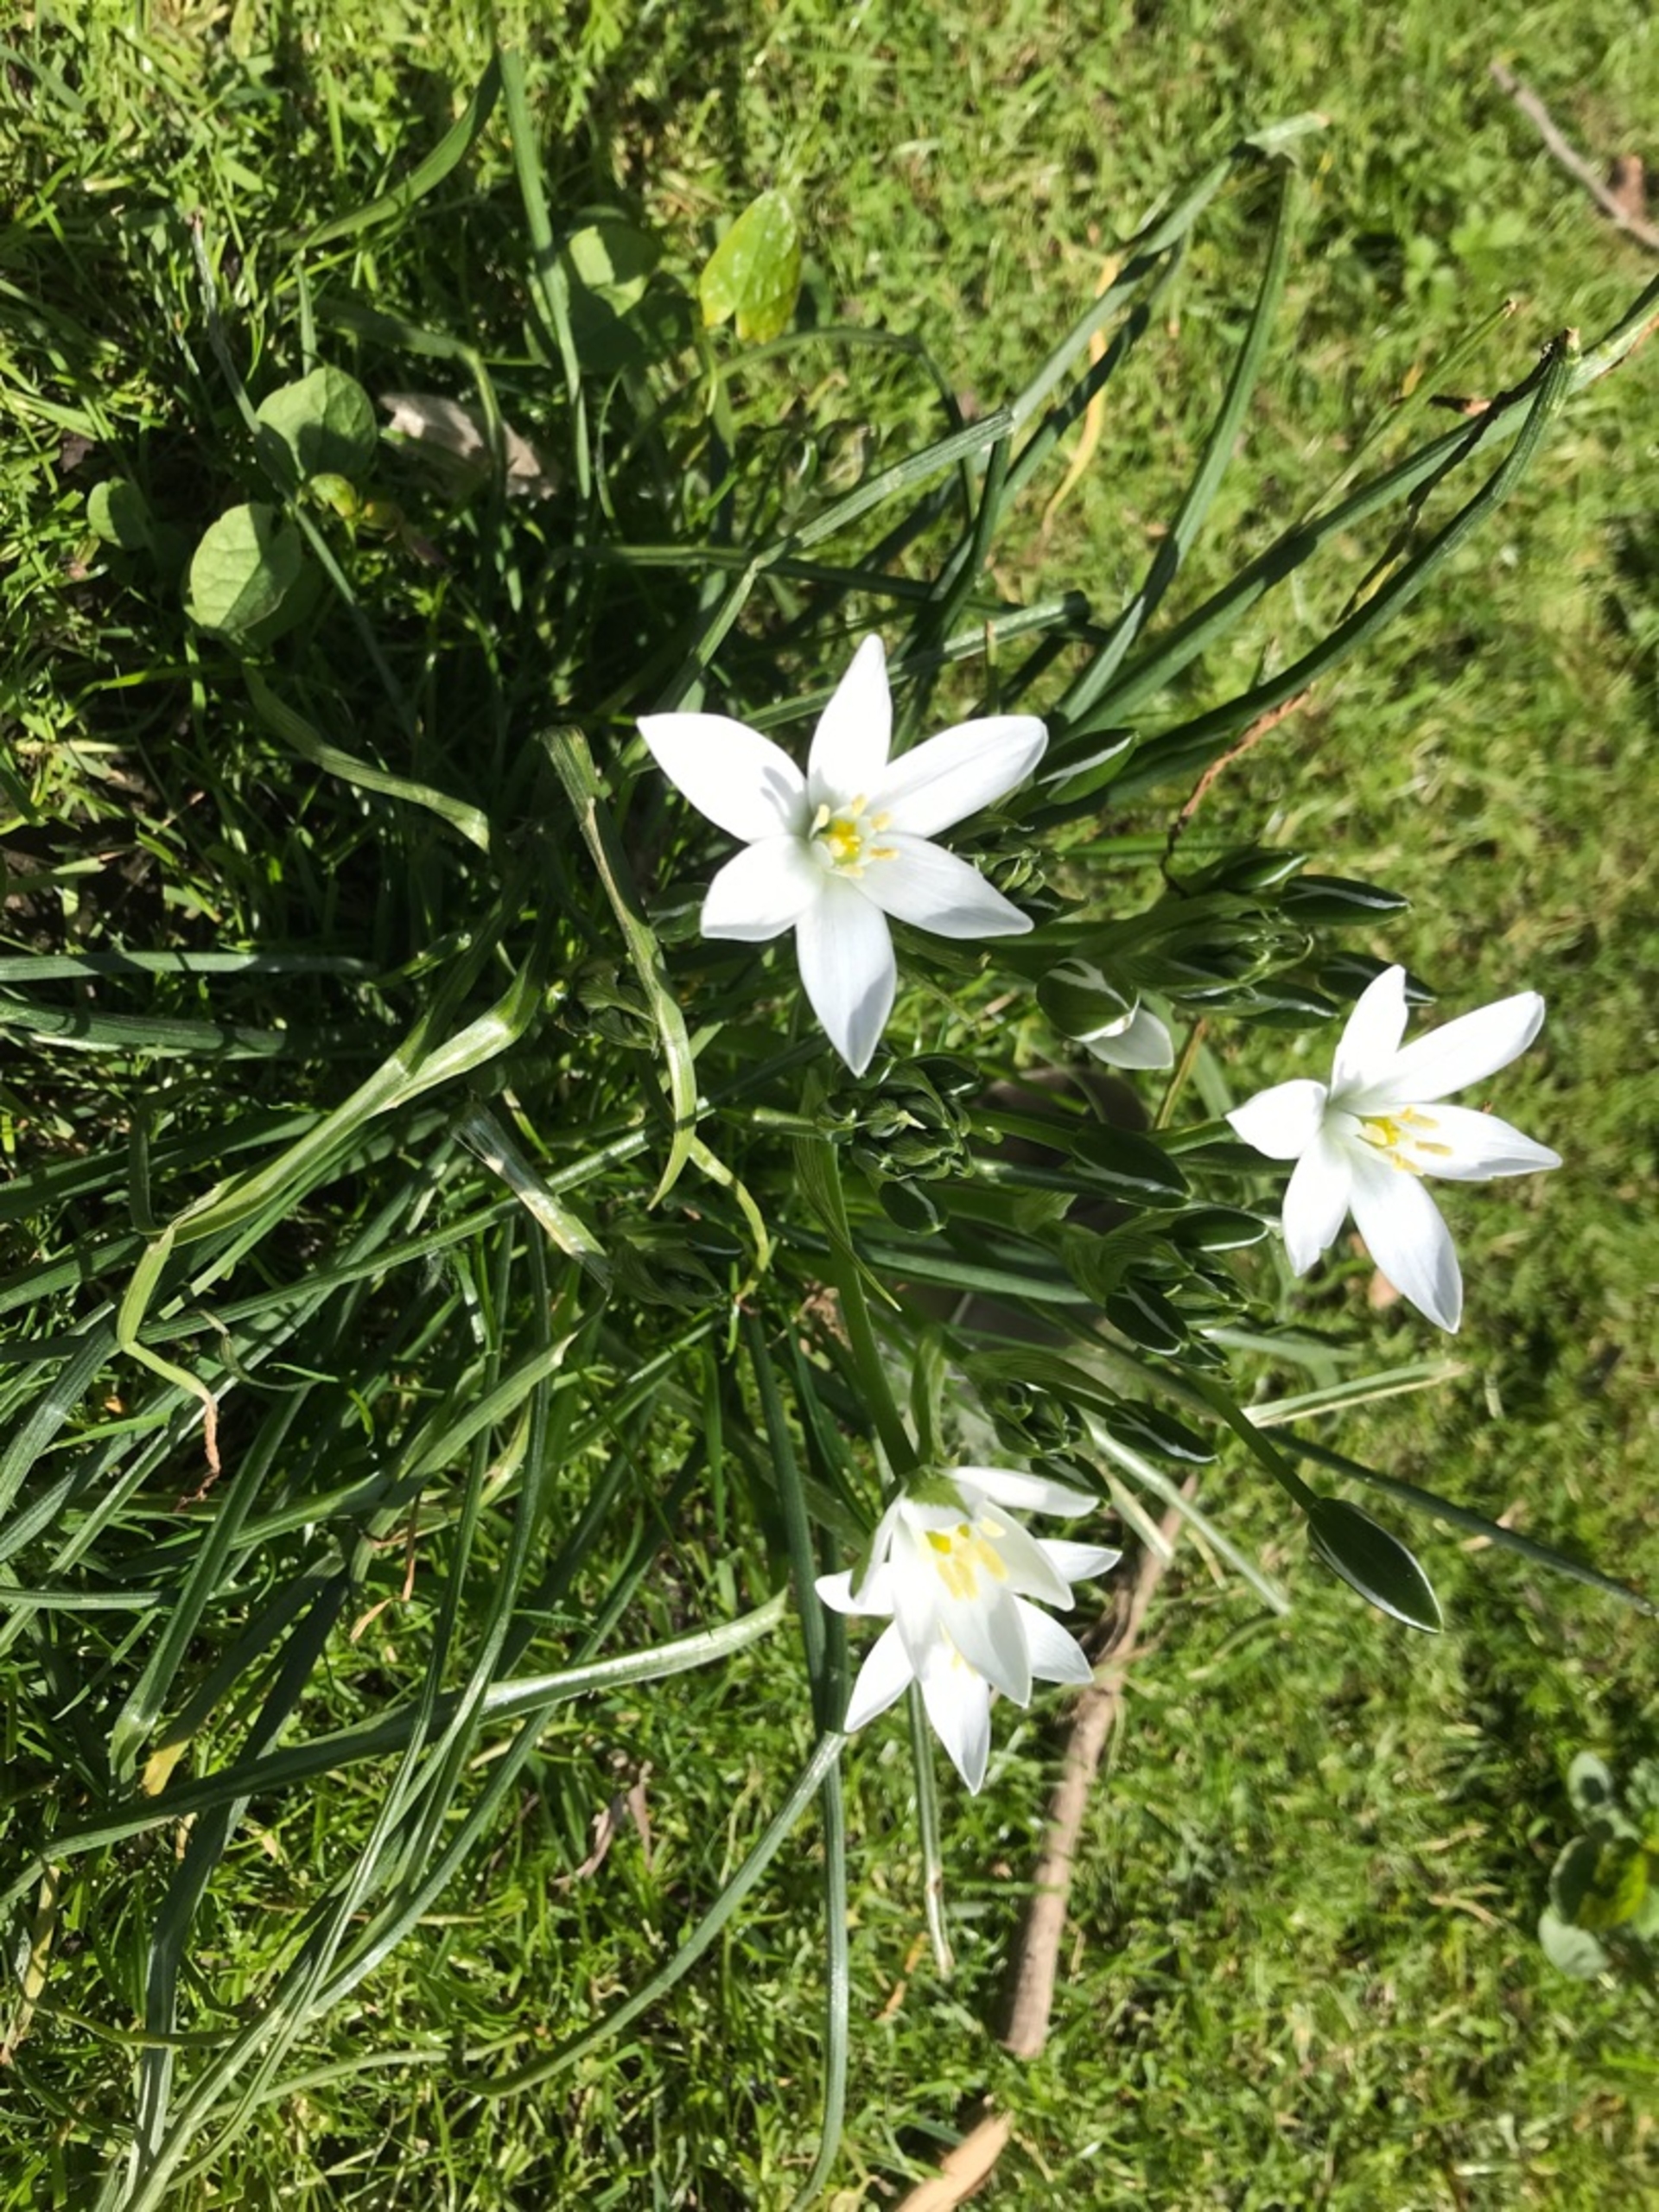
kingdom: Plantae
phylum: Tracheophyta
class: Liliopsida
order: Asparagales
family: Asparagaceae
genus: Ornithogalum
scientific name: Ornithogalum umbellatum
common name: Kost-fuglemælk
